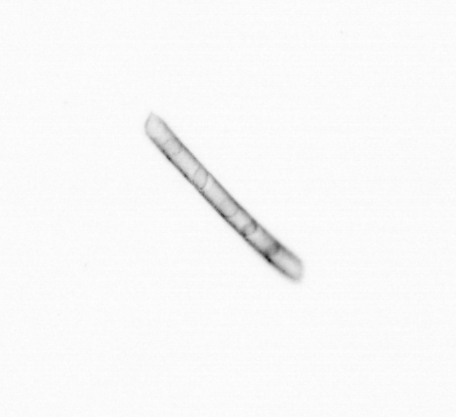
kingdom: Chromista
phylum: Ochrophyta
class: Bacillariophyceae
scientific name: Bacillariophyceae
